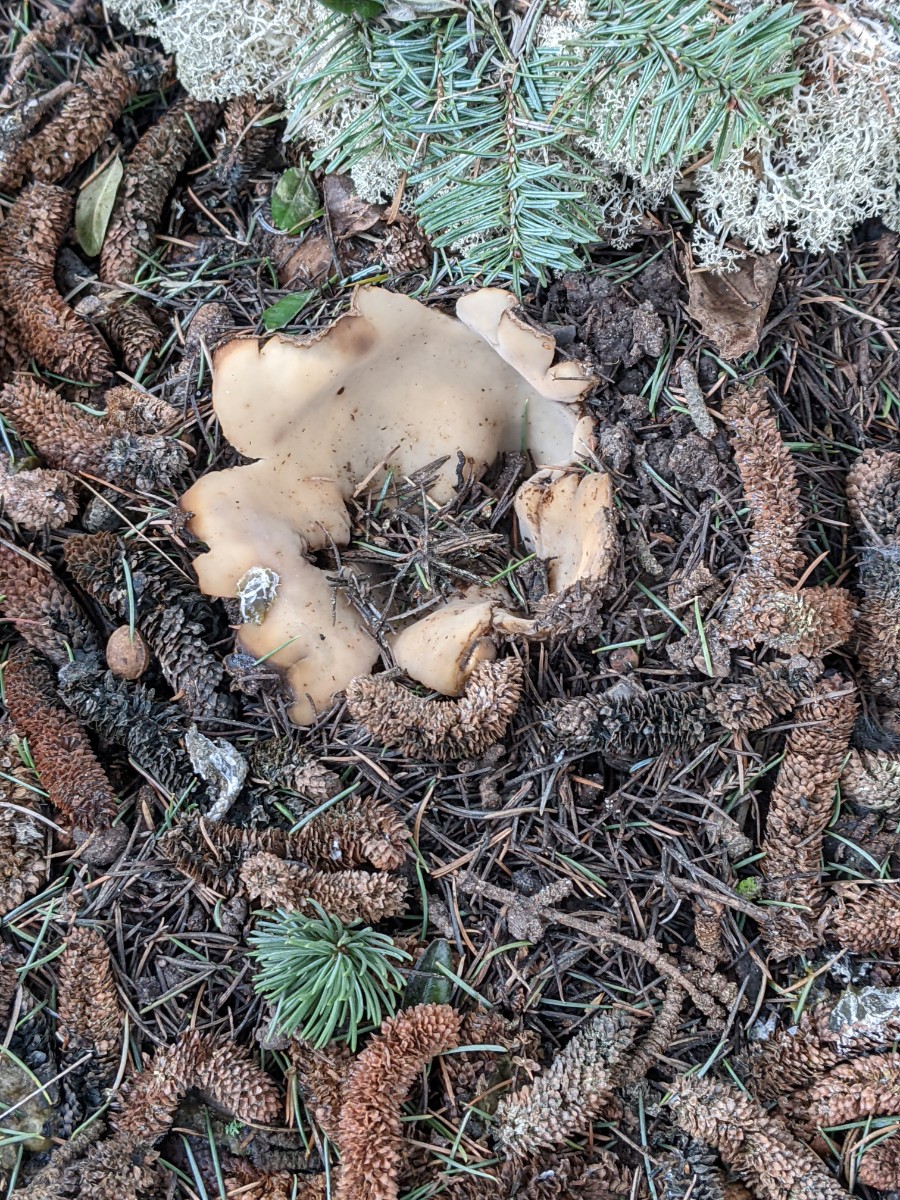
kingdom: Fungi
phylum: Ascomycota
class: Pezizomycetes
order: Pezizales
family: Pyronemataceae
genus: Geopora
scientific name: Geopora sumneriana
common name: vår-jordbæger
